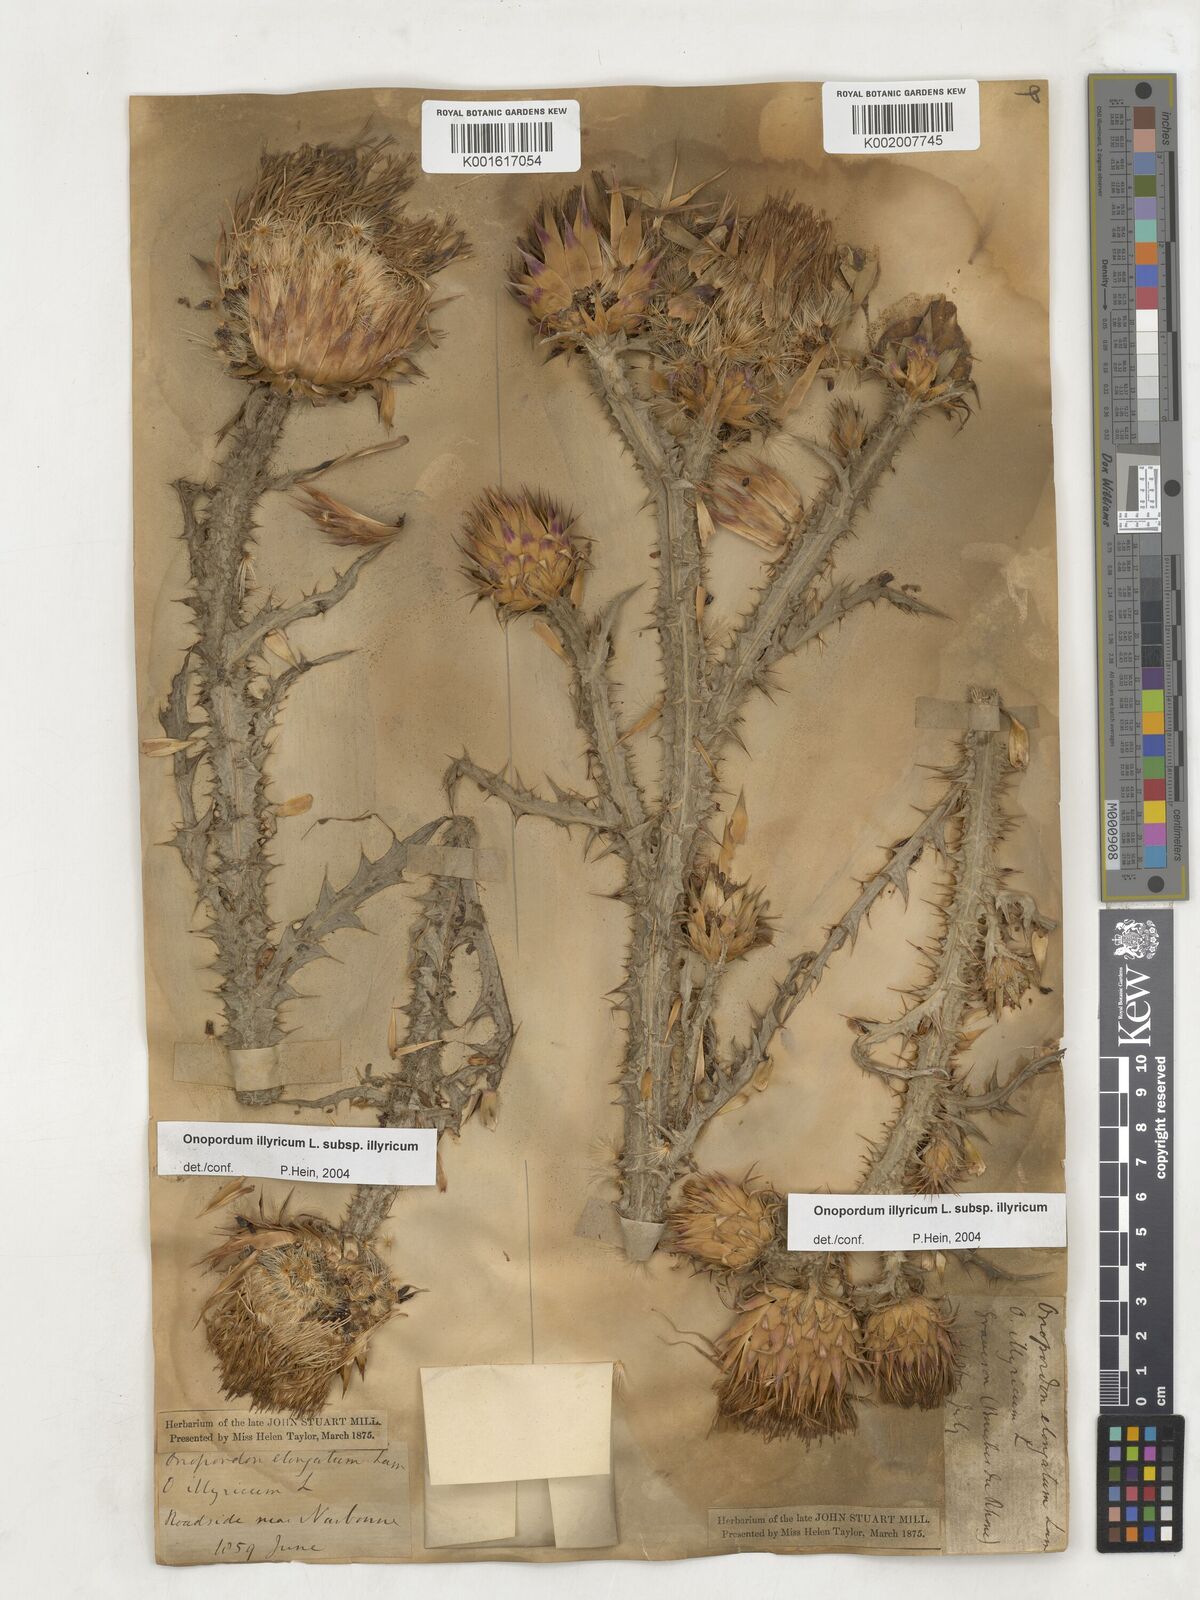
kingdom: Plantae
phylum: Tracheophyta
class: Magnoliopsida
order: Asterales
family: Asteraceae
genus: Onopordum
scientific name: Onopordum illyricum
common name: Illyrian thistle
